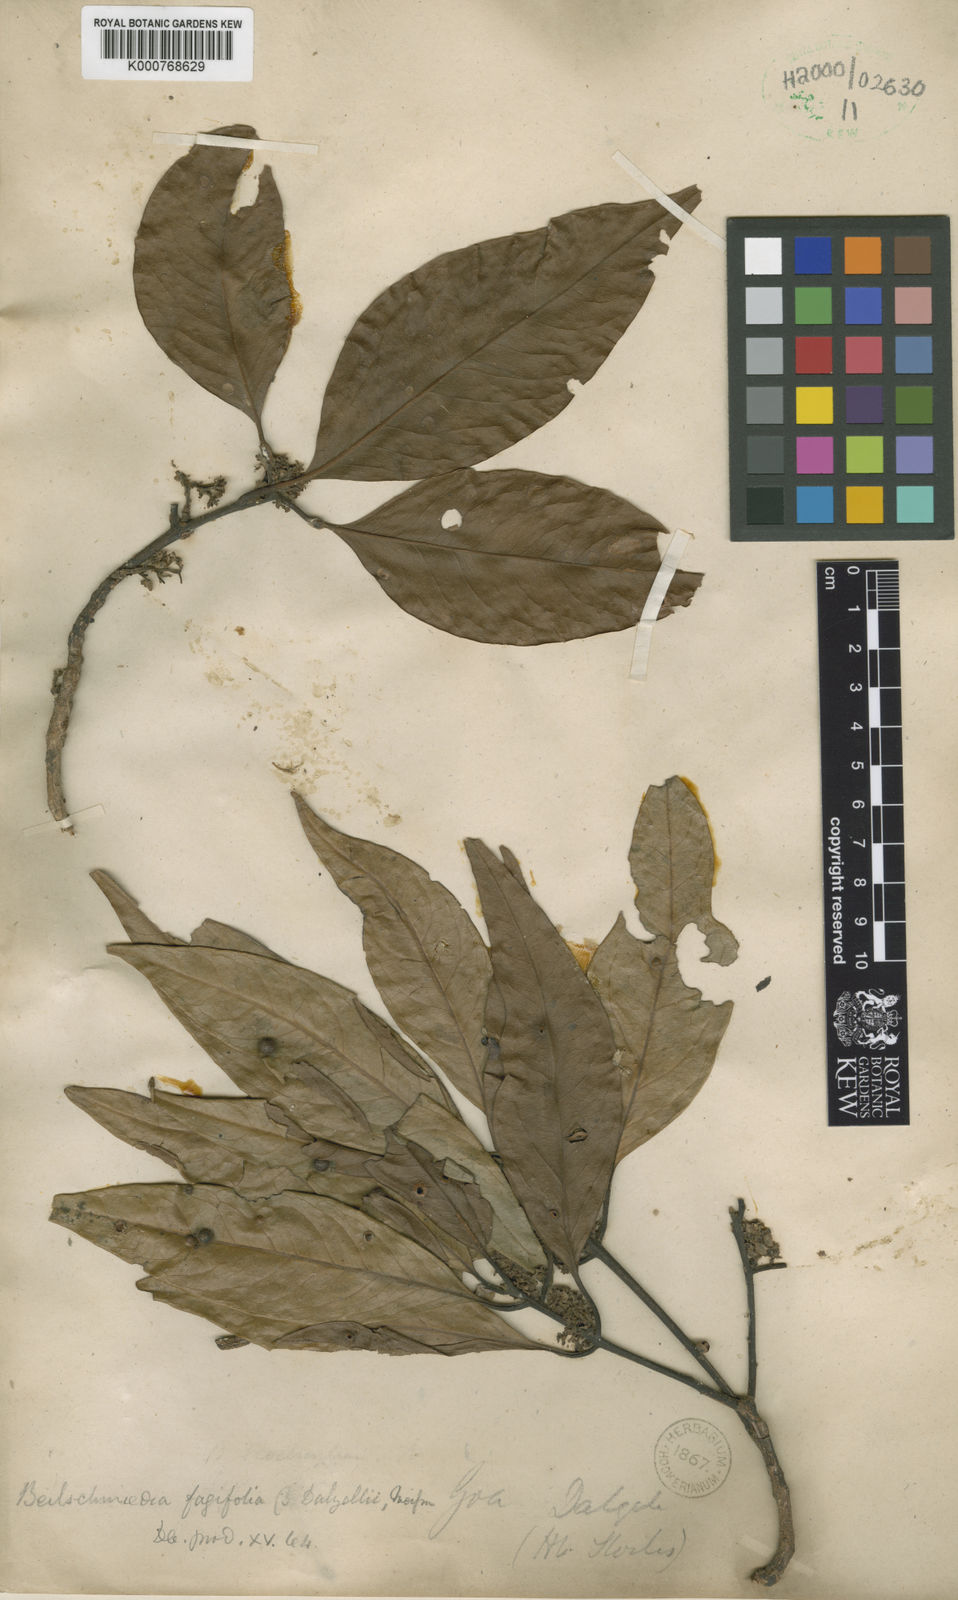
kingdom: Plantae
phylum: Tracheophyta
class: Magnoliopsida
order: Laurales
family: Lauraceae
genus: Beilschmiedia
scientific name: Beilschmiedia fagifolia
